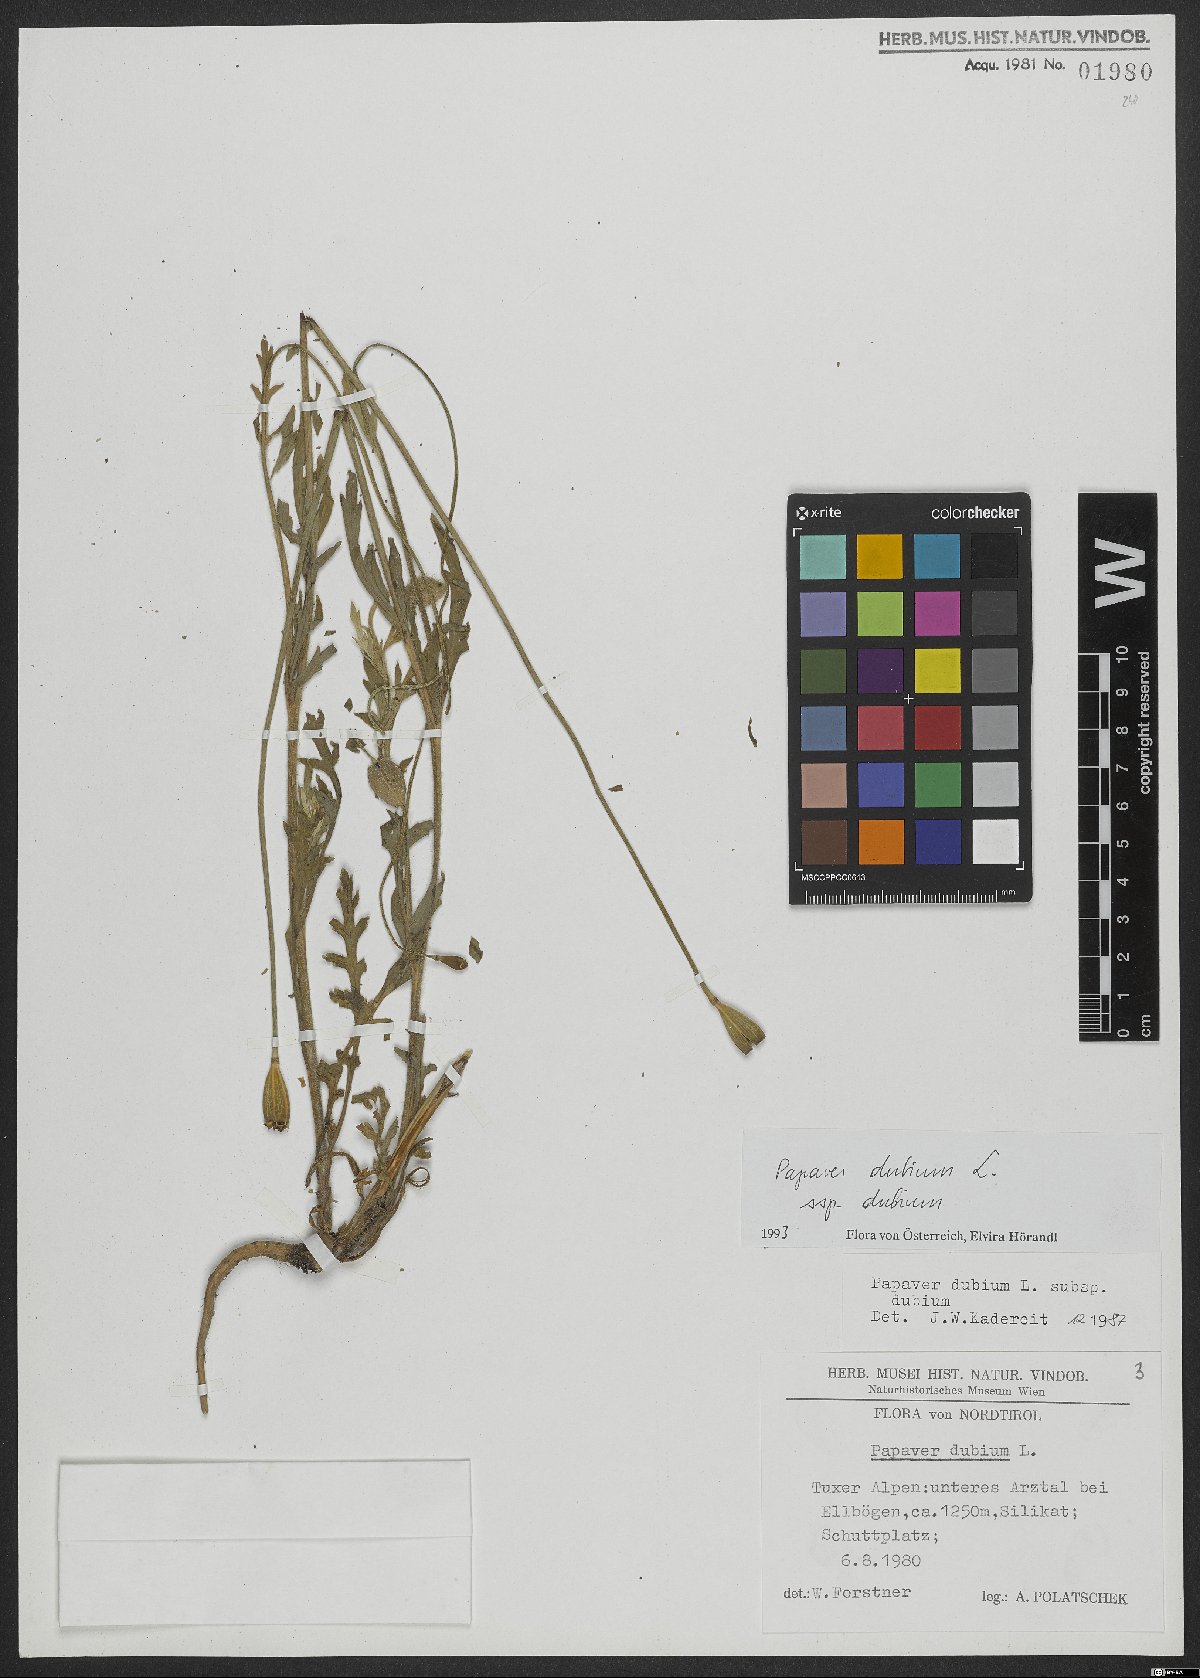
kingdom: Plantae
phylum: Tracheophyta
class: Magnoliopsida
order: Ranunculales
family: Papaveraceae
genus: Papaver
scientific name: Papaver dubium
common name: Long-headed poppy
